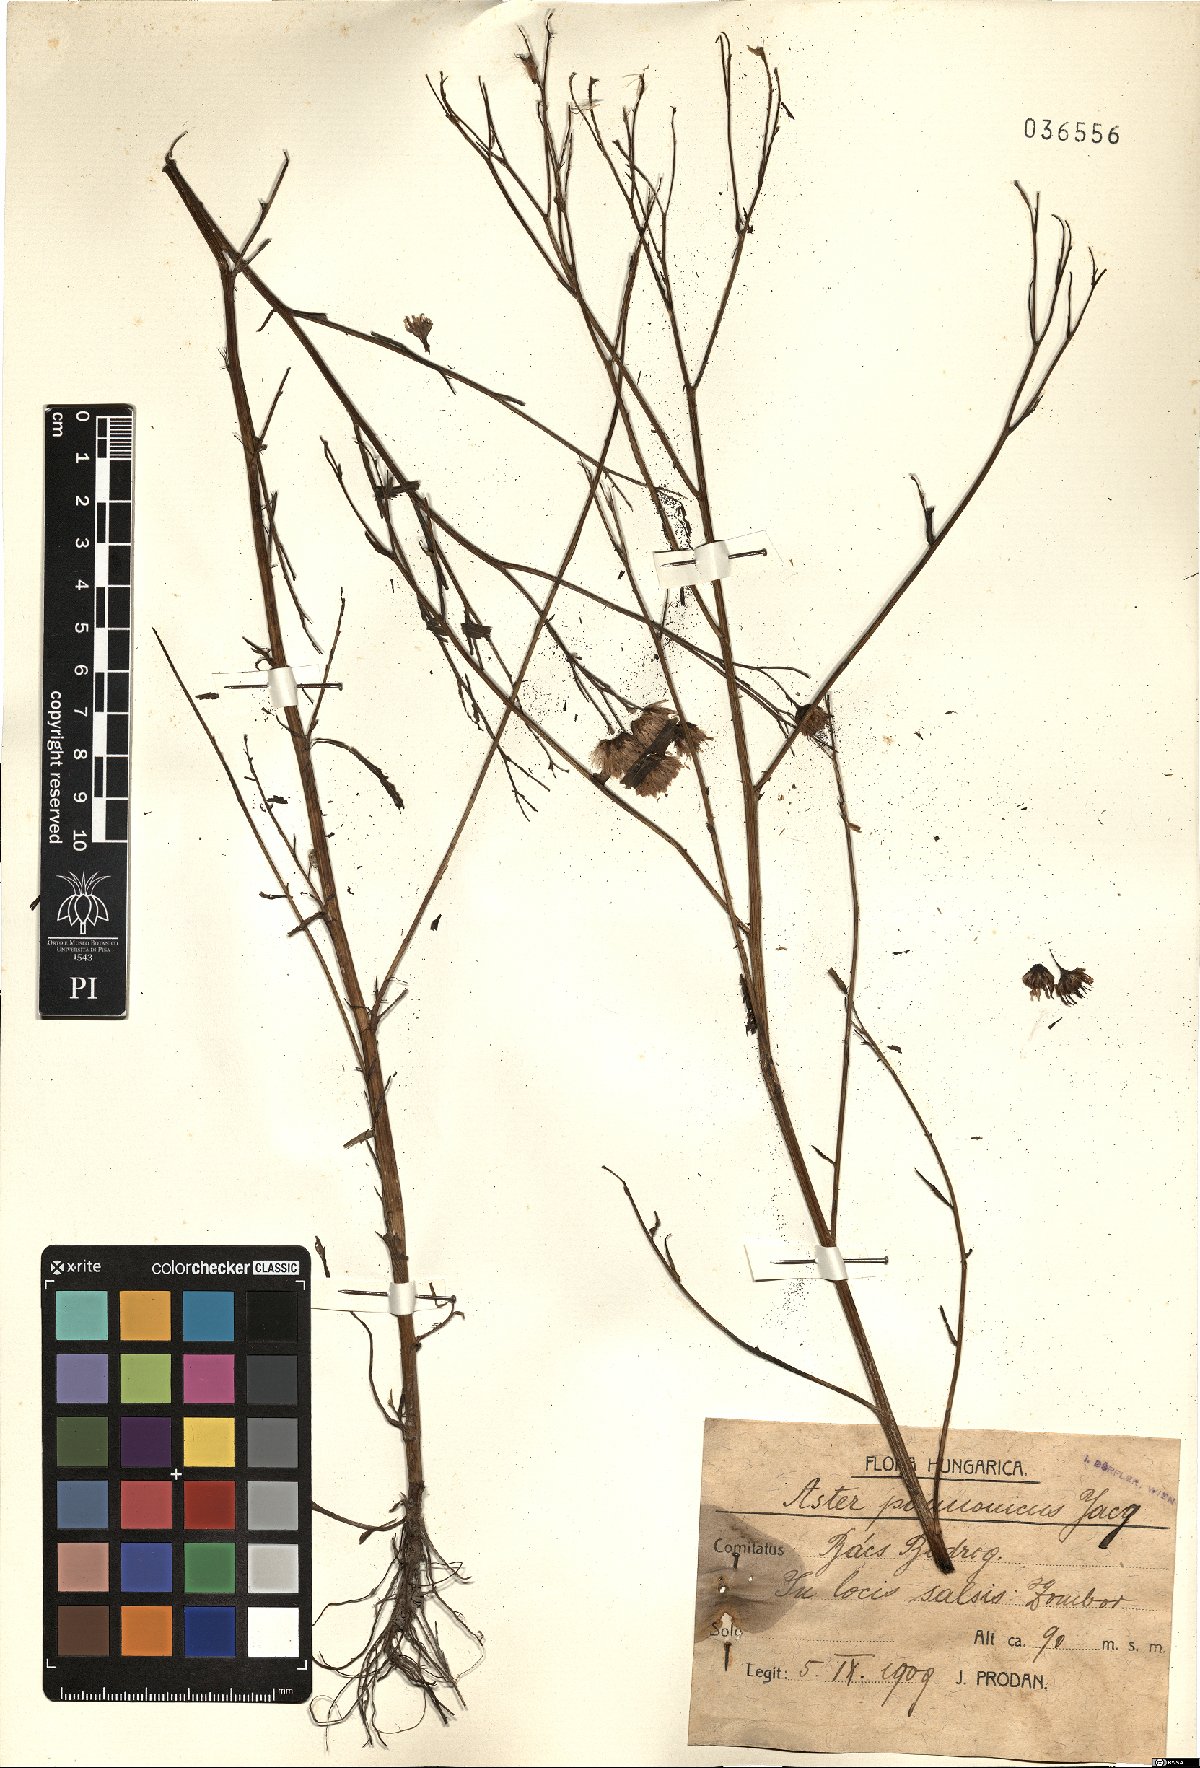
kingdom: Plantae
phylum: Tracheophyta
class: Magnoliopsida
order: Asterales
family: Asteraceae
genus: Tripolium
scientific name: Tripolium pannonicum
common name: Sea aster
